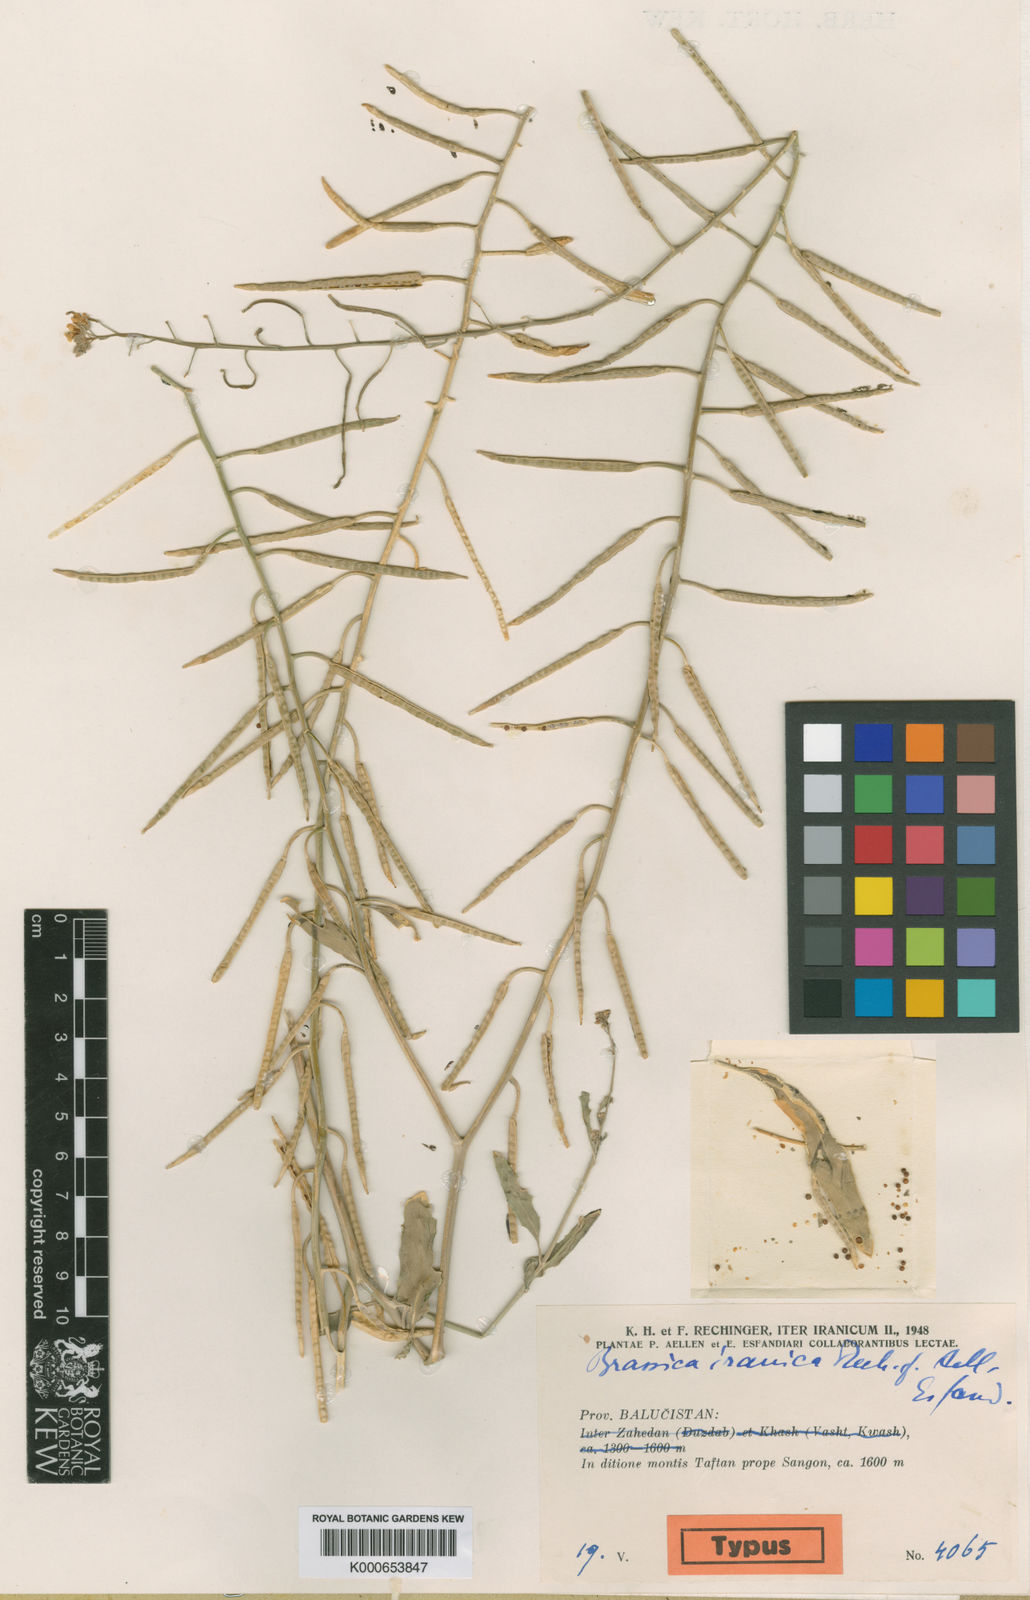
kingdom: Plantae
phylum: Tracheophyta
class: Magnoliopsida
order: Brassicales
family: Brassicaceae
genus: Brassica
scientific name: Brassica deflexa
